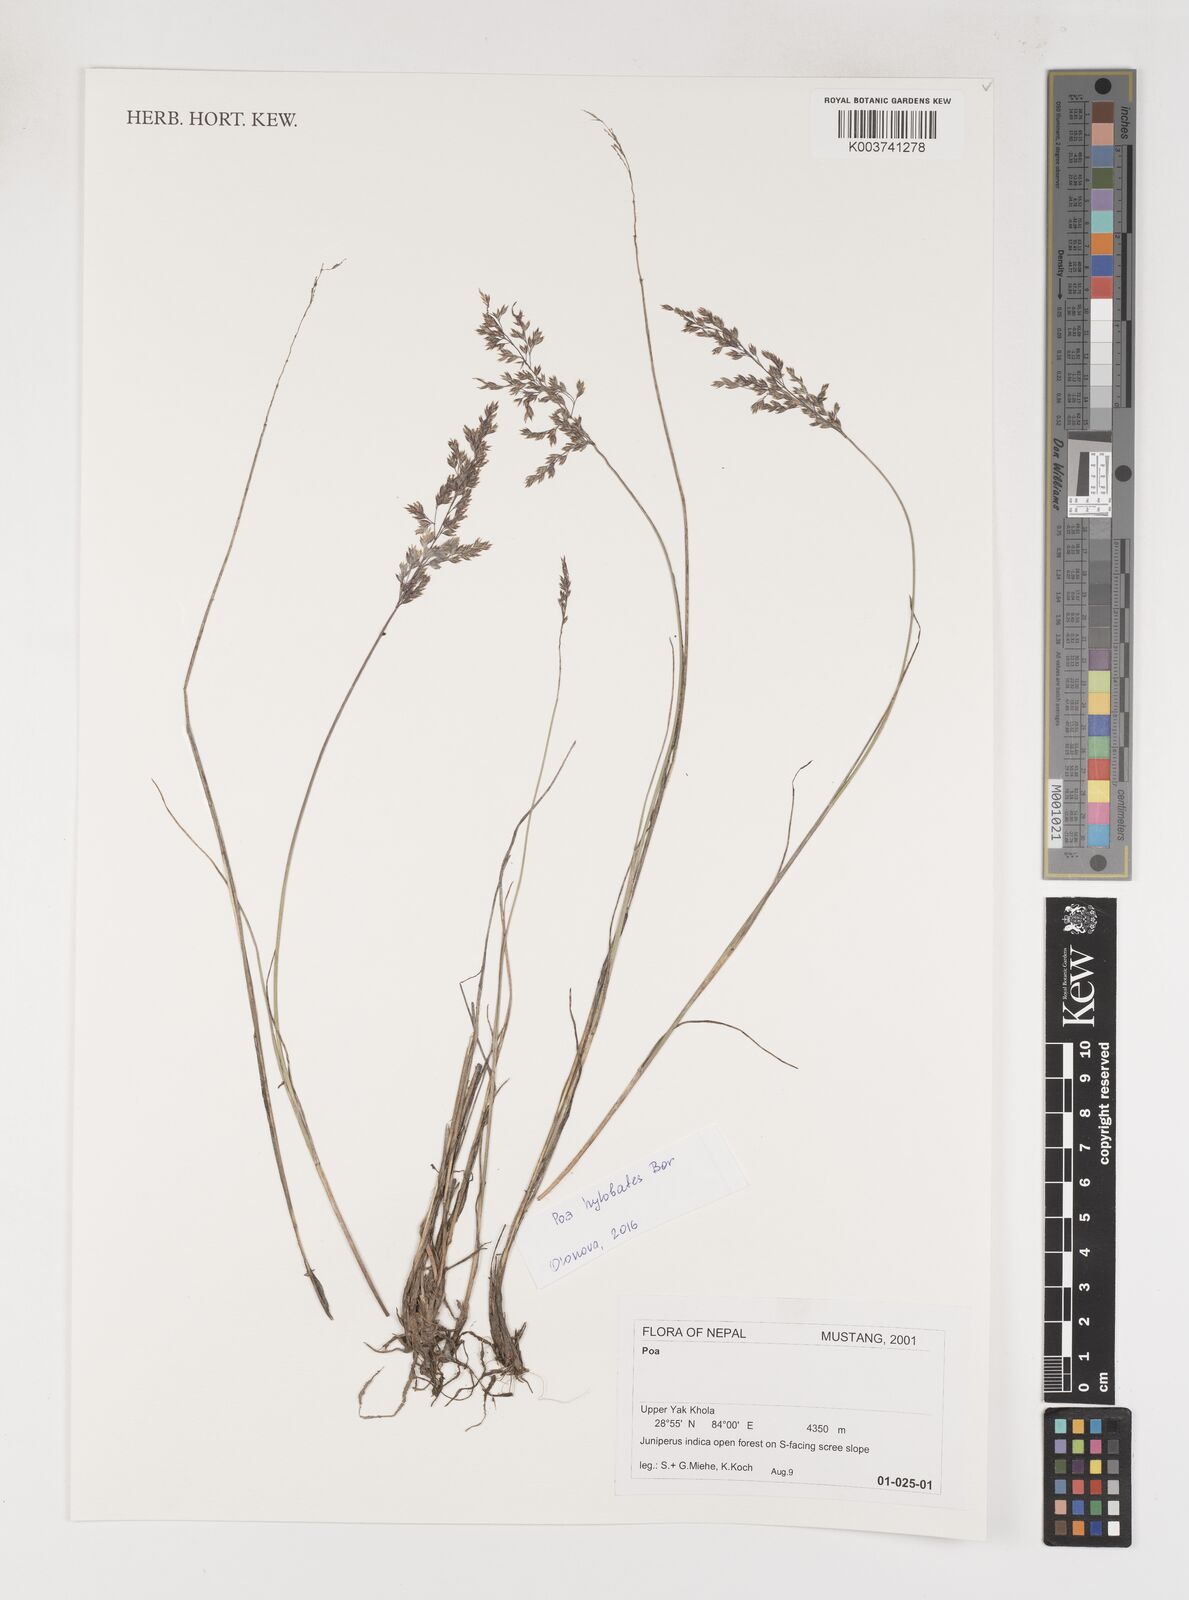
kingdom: Plantae
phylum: Tracheophyta
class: Liliopsida
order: Poales
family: Poaceae
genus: Poa
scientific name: Poa
